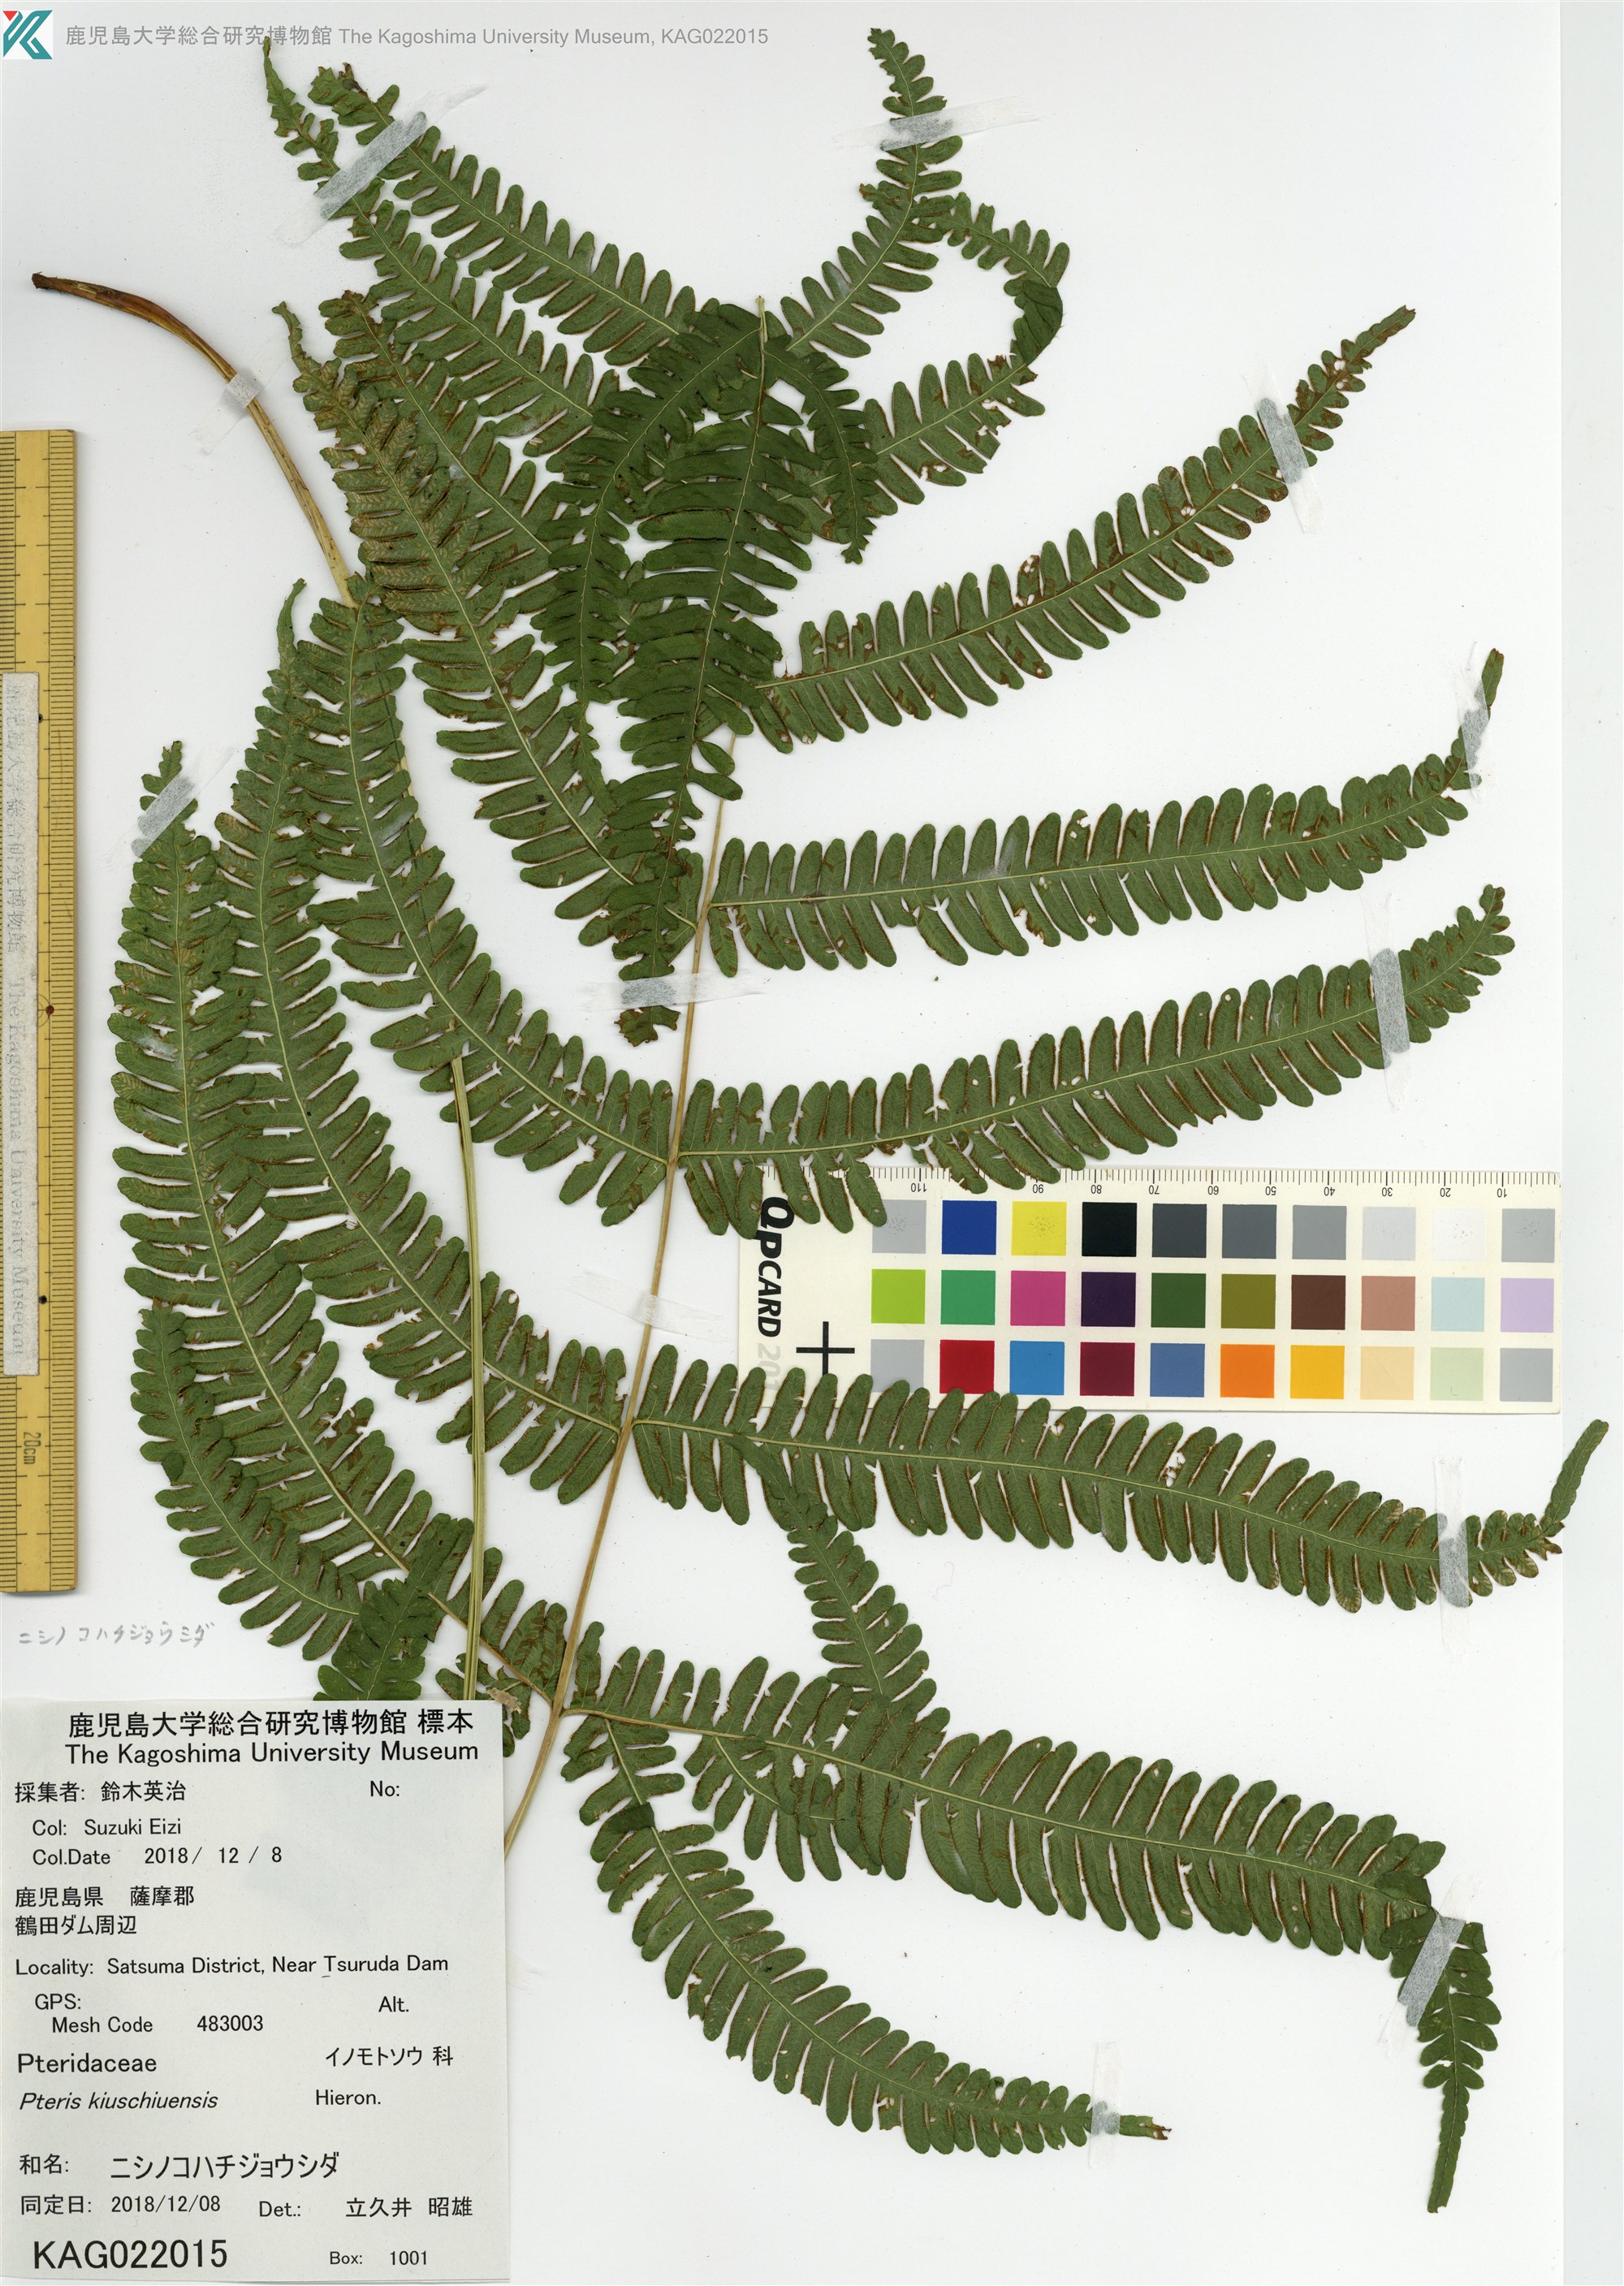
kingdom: Plantae
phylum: Tracheophyta
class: Polypodiopsida
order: Polypodiales
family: Pteridaceae
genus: Pteris
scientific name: Pteris kiuschiuensis
